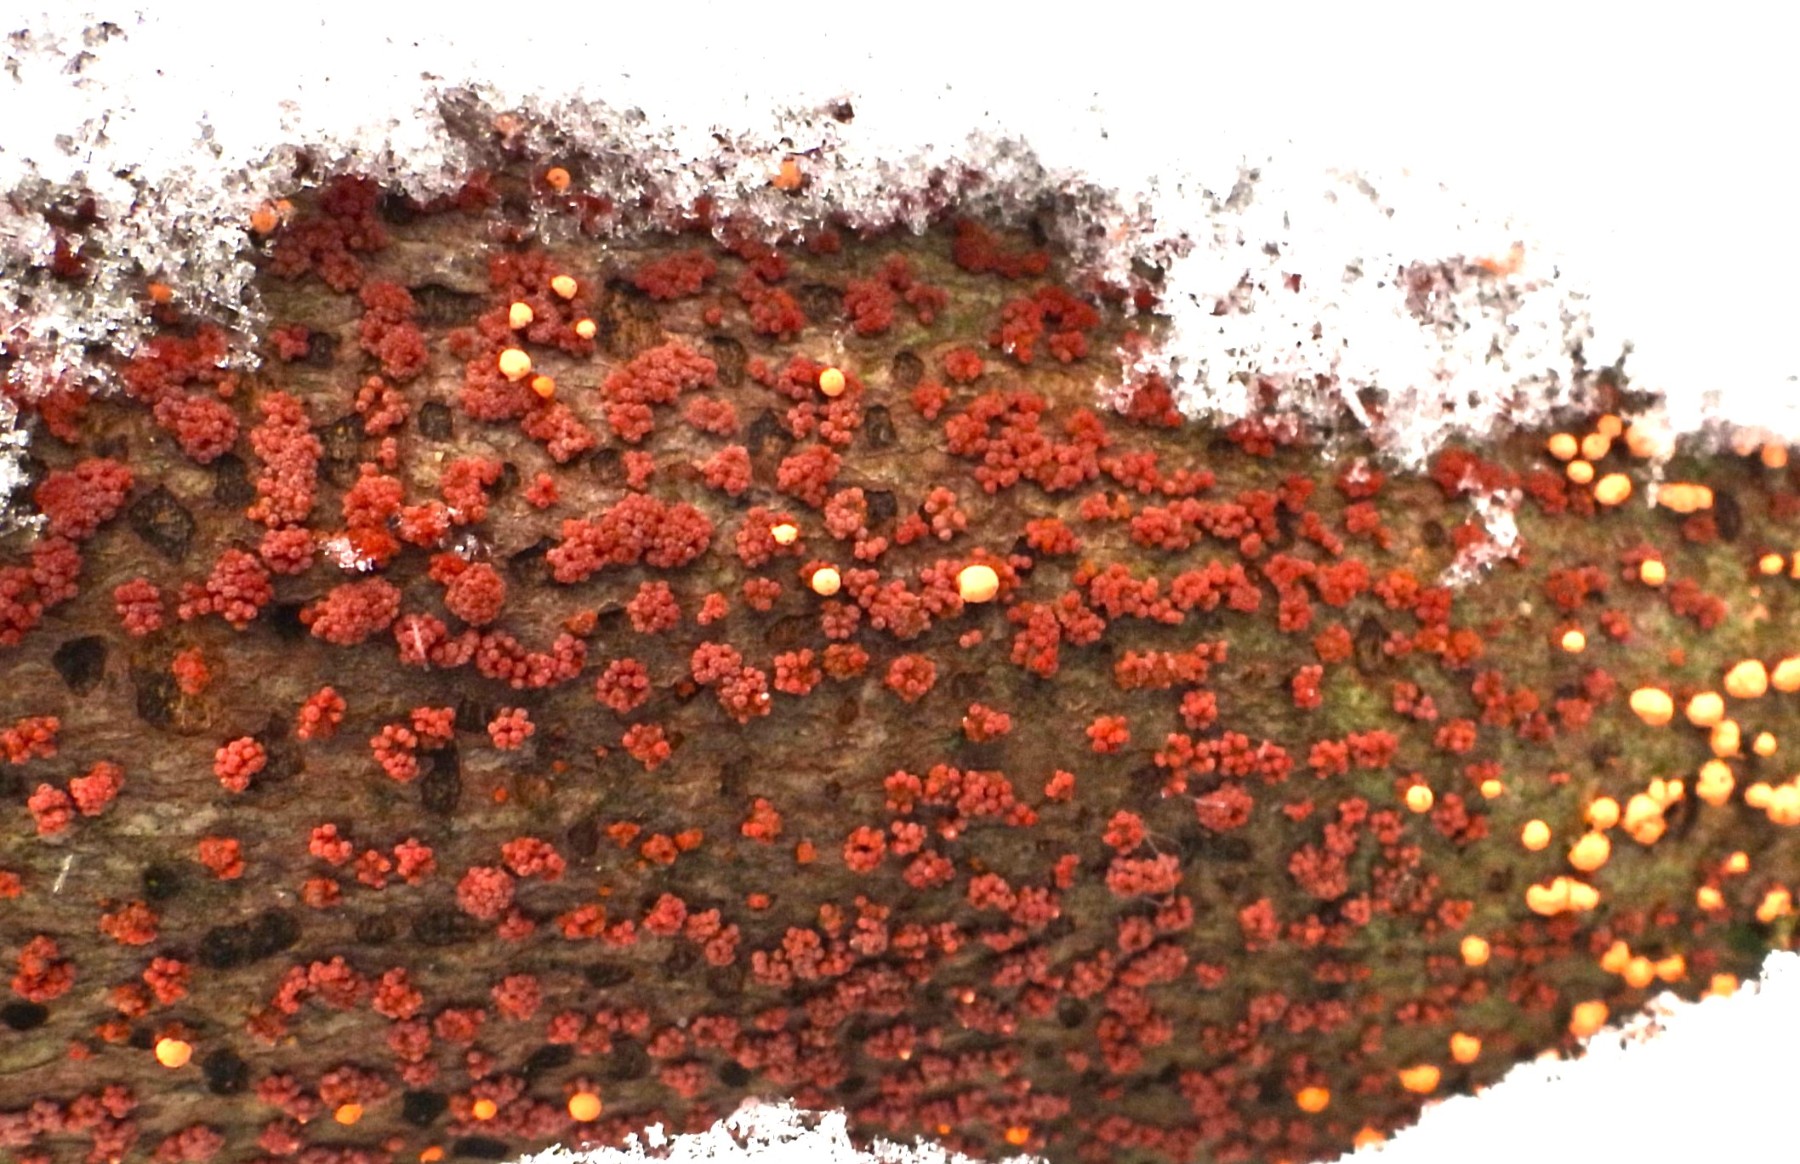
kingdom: Fungi
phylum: Ascomycota
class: Sordariomycetes
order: Hypocreales
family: Nectriaceae
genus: Nectria
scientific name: Nectria cinnabarina
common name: almindelig cinnobersvamp
